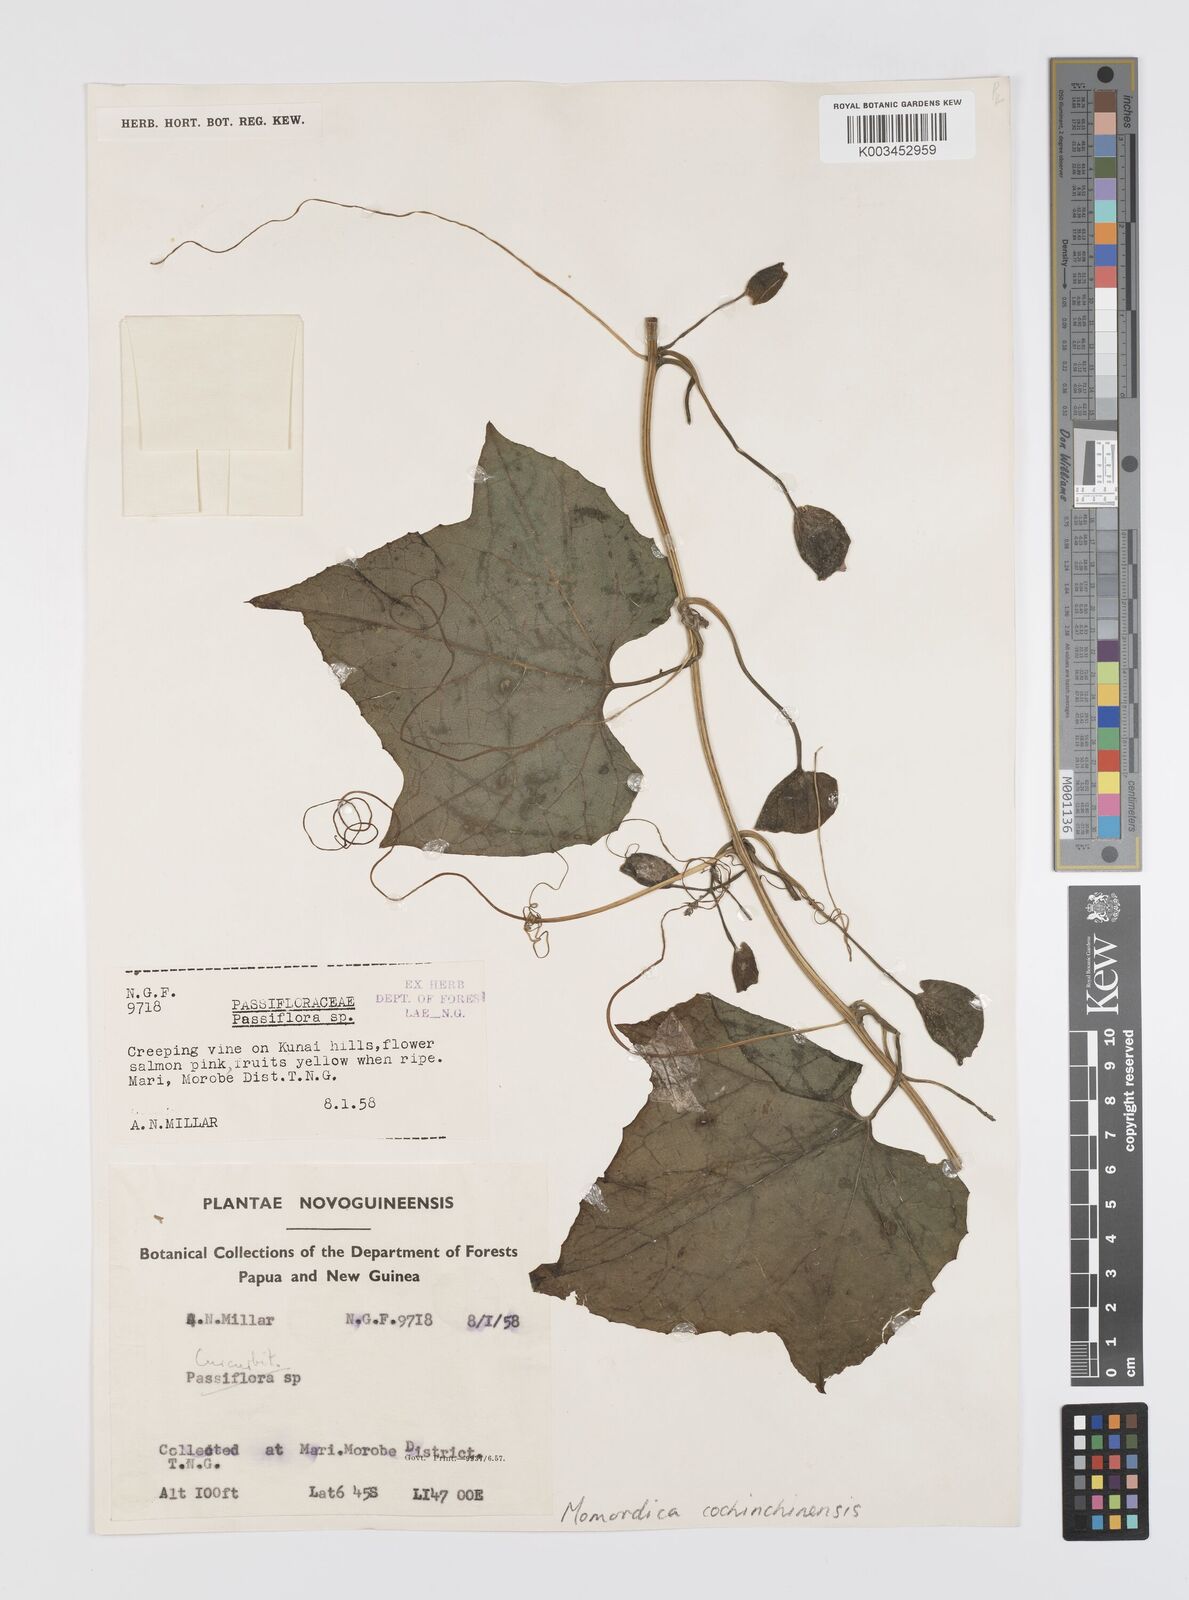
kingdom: Plantae
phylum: Tracheophyta
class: Magnoliopsida
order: Cucurbitales
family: Cucurbitaceae
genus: Momordica
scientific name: Momordica cochinchinensis
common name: Chinese bitter-cucumber
